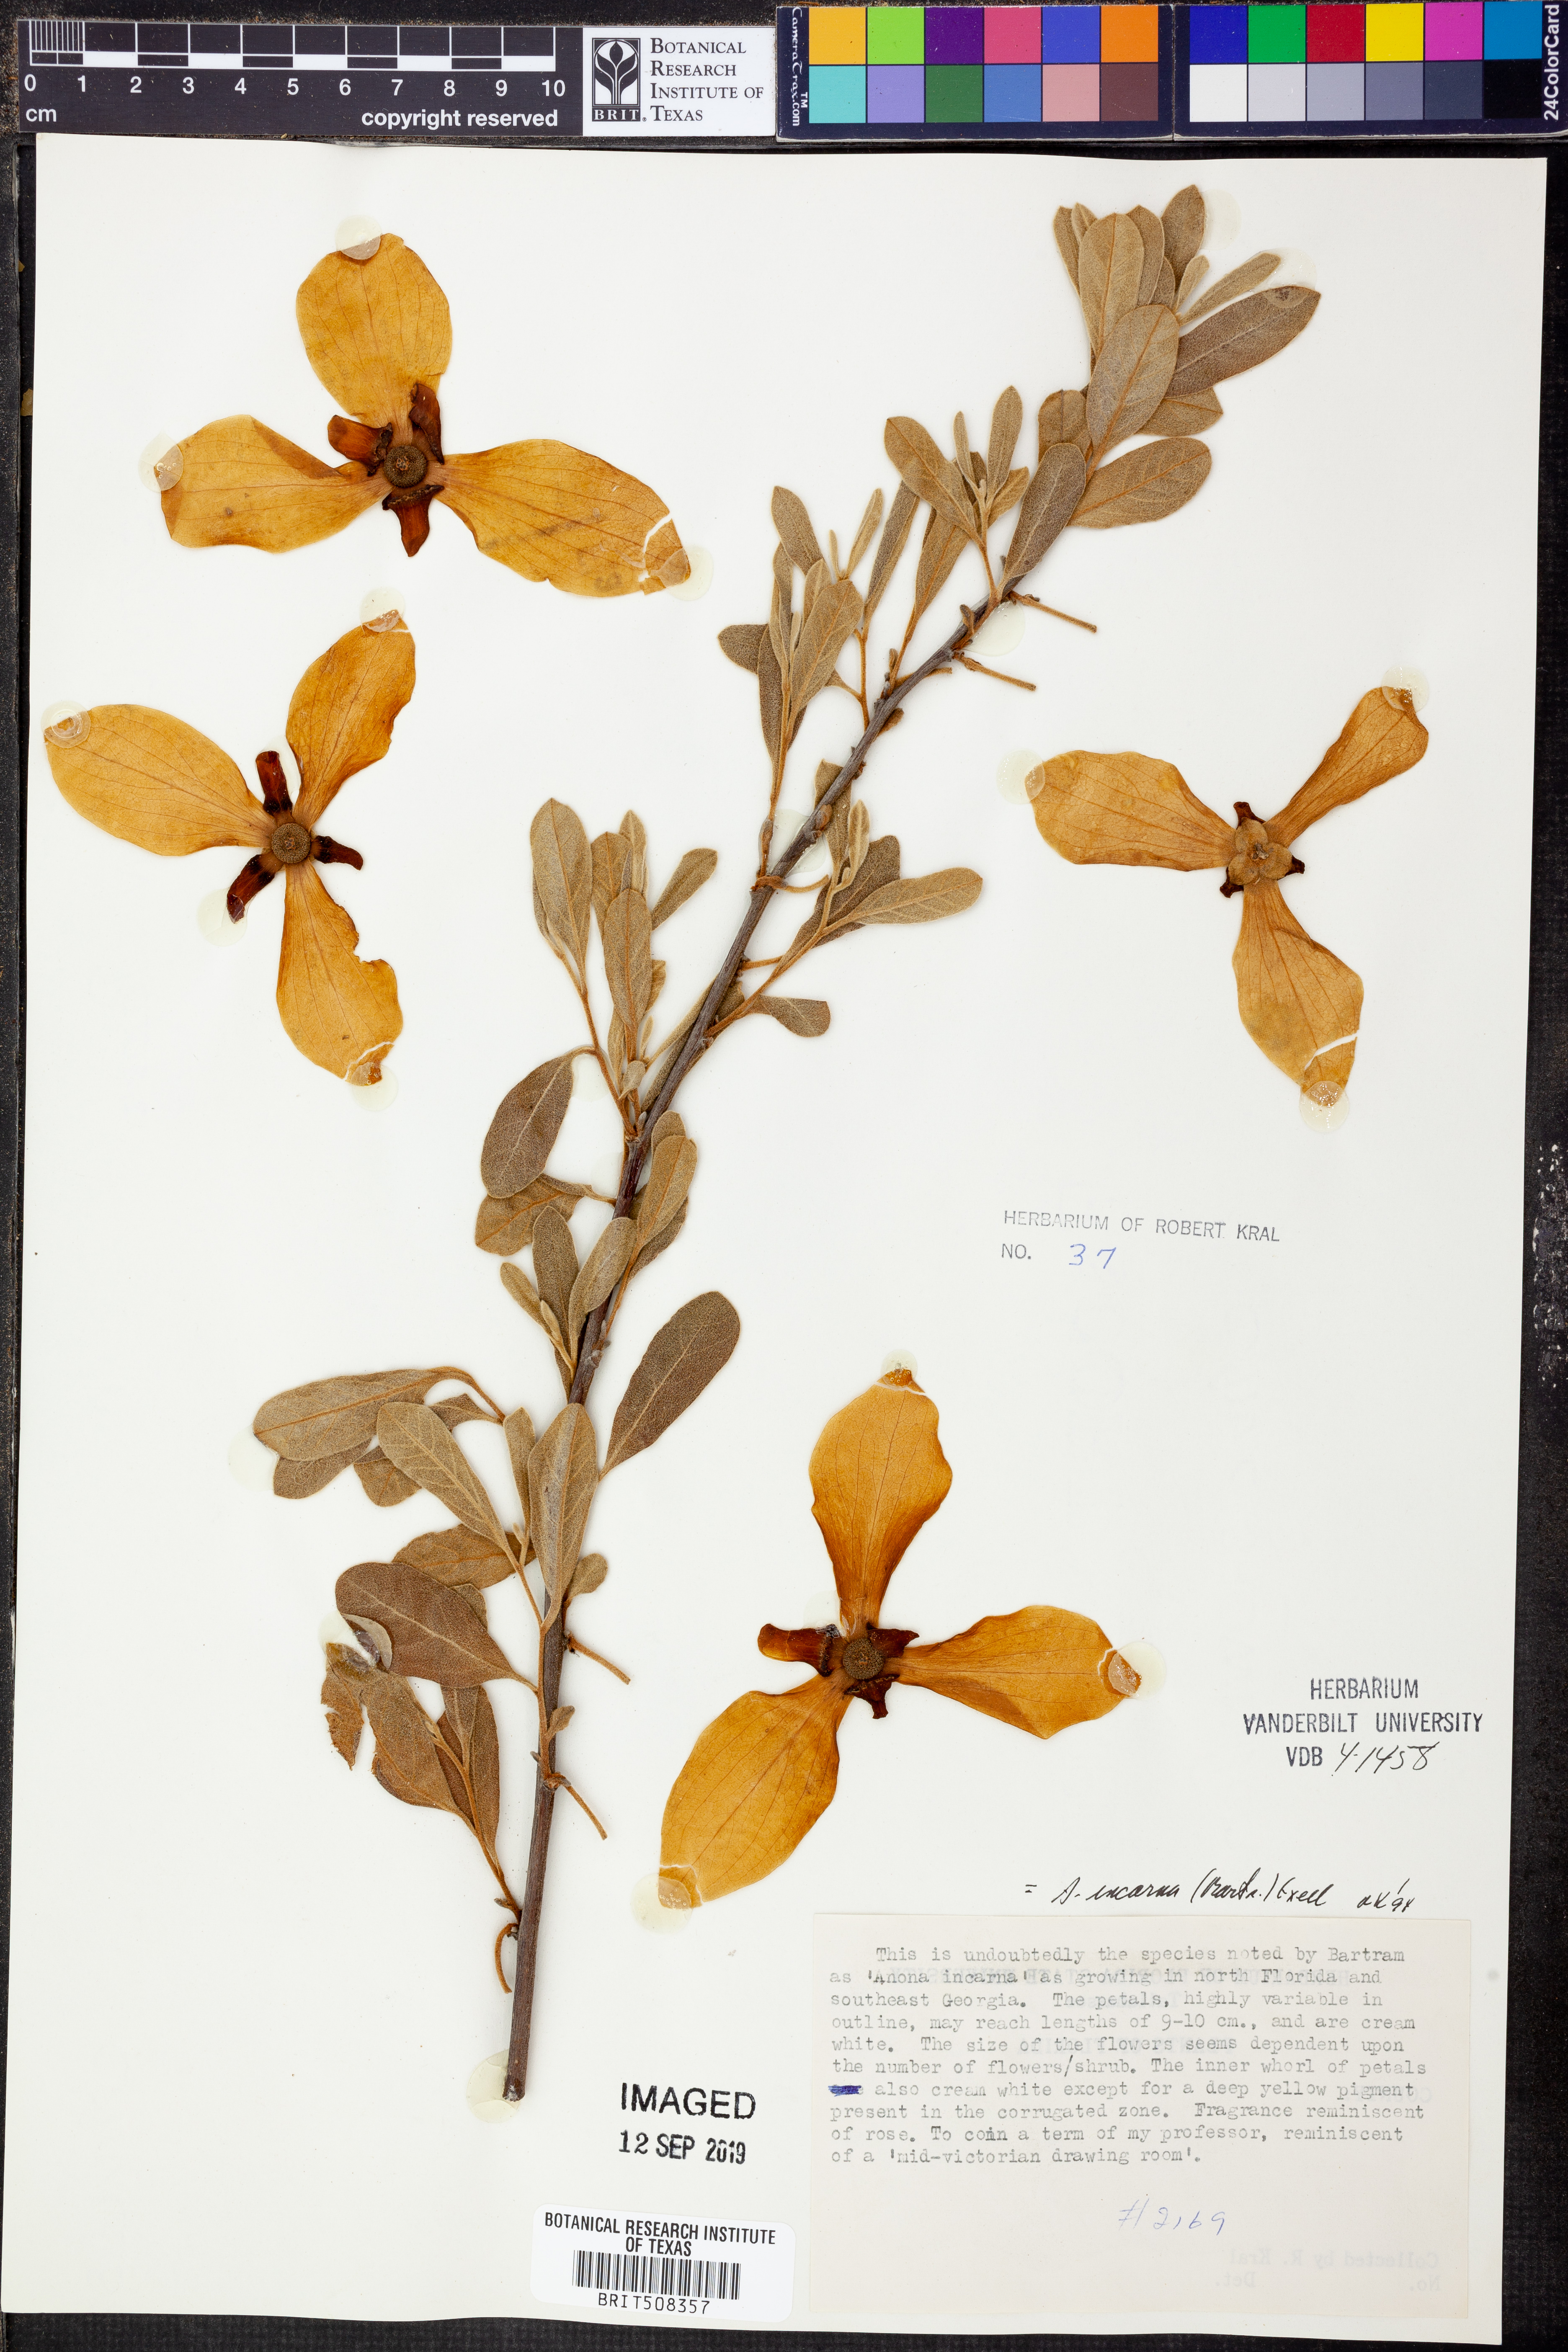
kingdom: Plantae
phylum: Tracheophyta
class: Magnoliopsida
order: Magnoliales
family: Annonaceae
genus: Asimina
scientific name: Asimina speciosa
